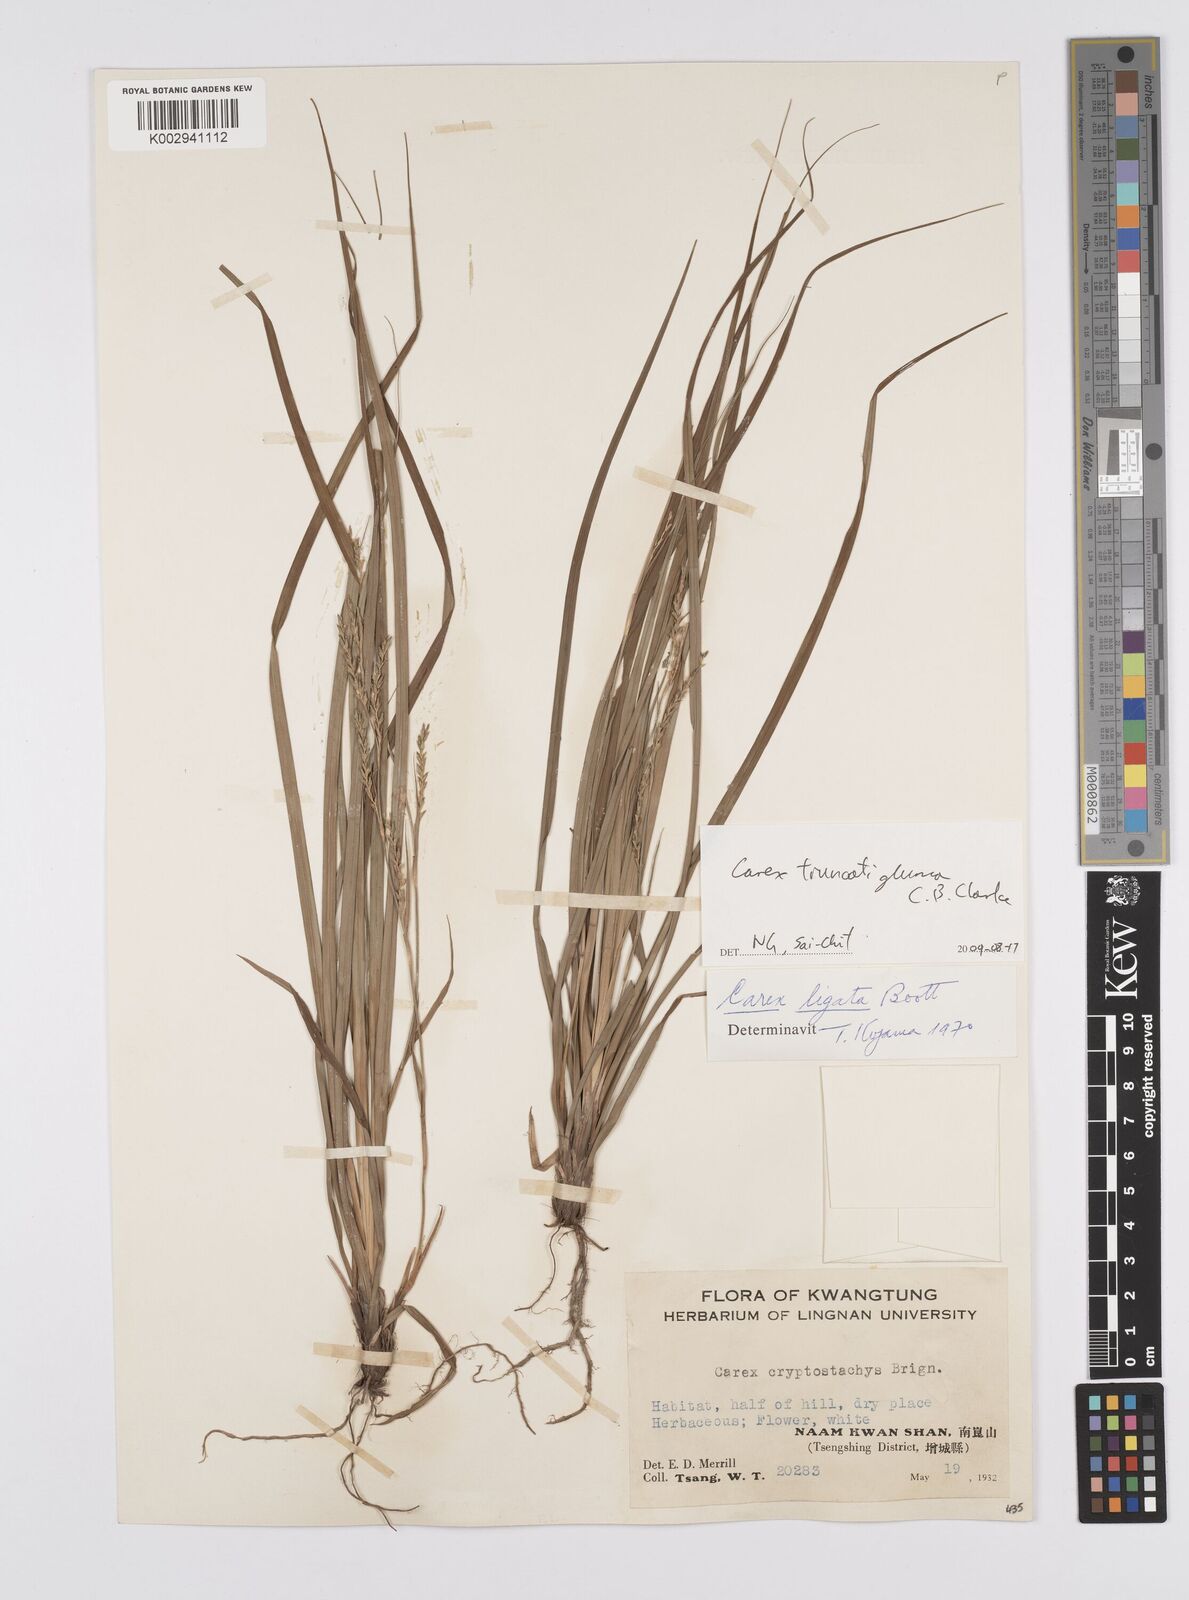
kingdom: Plantae
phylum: Tracheophyta
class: Liliopsida
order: Poales
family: Cyperaceae
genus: Carex
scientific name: Carex truncatigluma
